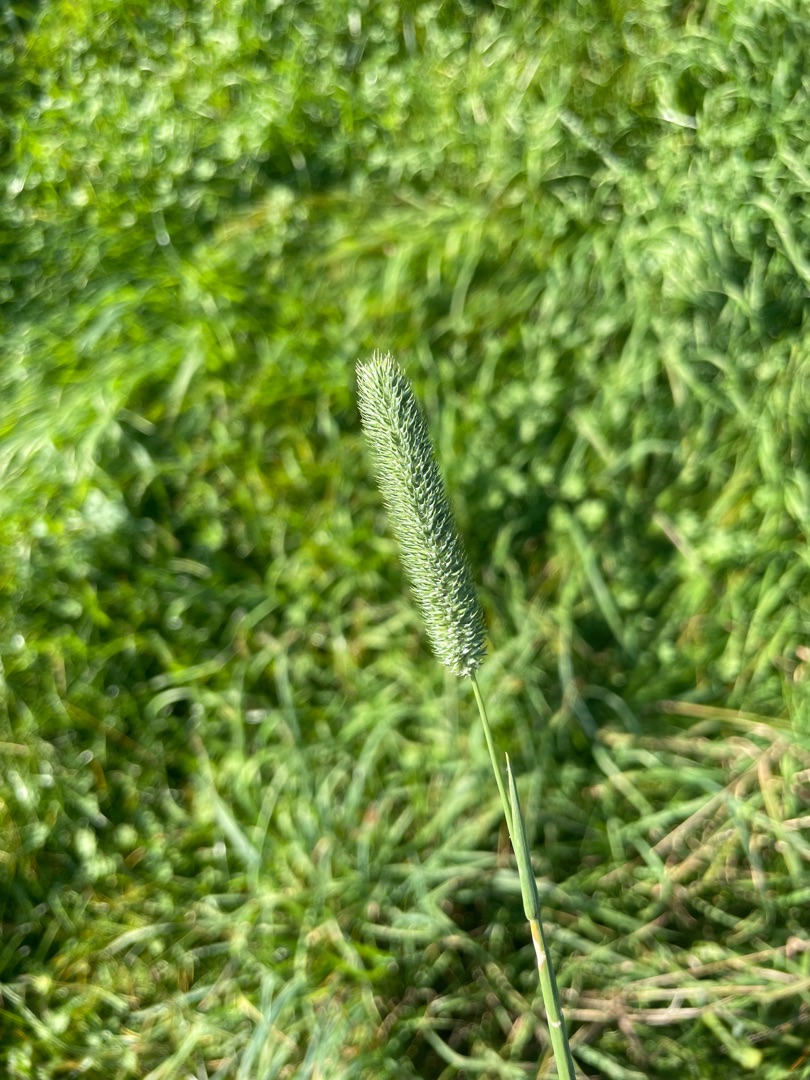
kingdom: Plantae
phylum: Tracheophyta
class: Liliopsida
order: Poales
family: Poaceae
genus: Phleum
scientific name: Phleum pratense
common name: Eng-rottehale
